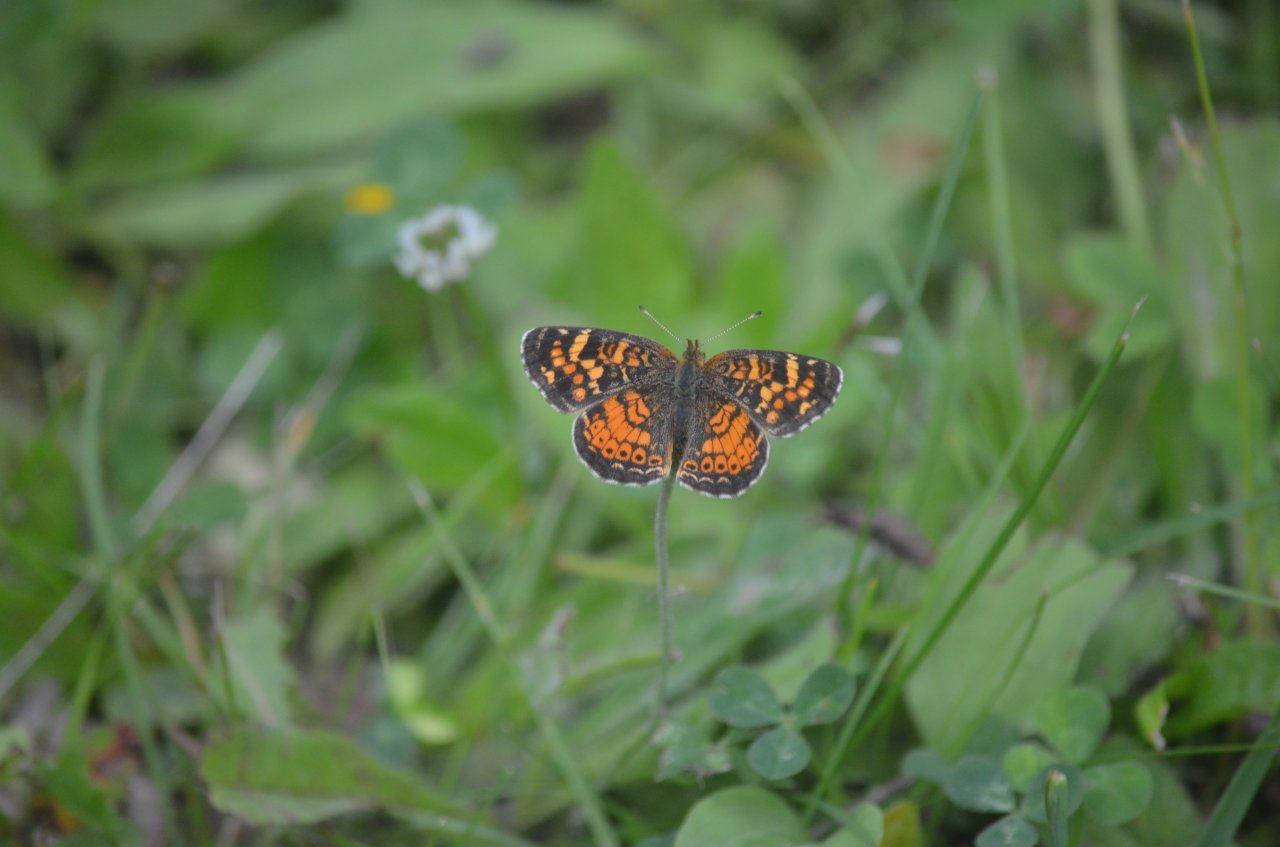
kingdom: Animalia
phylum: Arthropoda
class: Insecta
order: Lepidoptera
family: Nymphalidae
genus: Phyciodes
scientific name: Phyciodes tharos
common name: Northern Crescent
